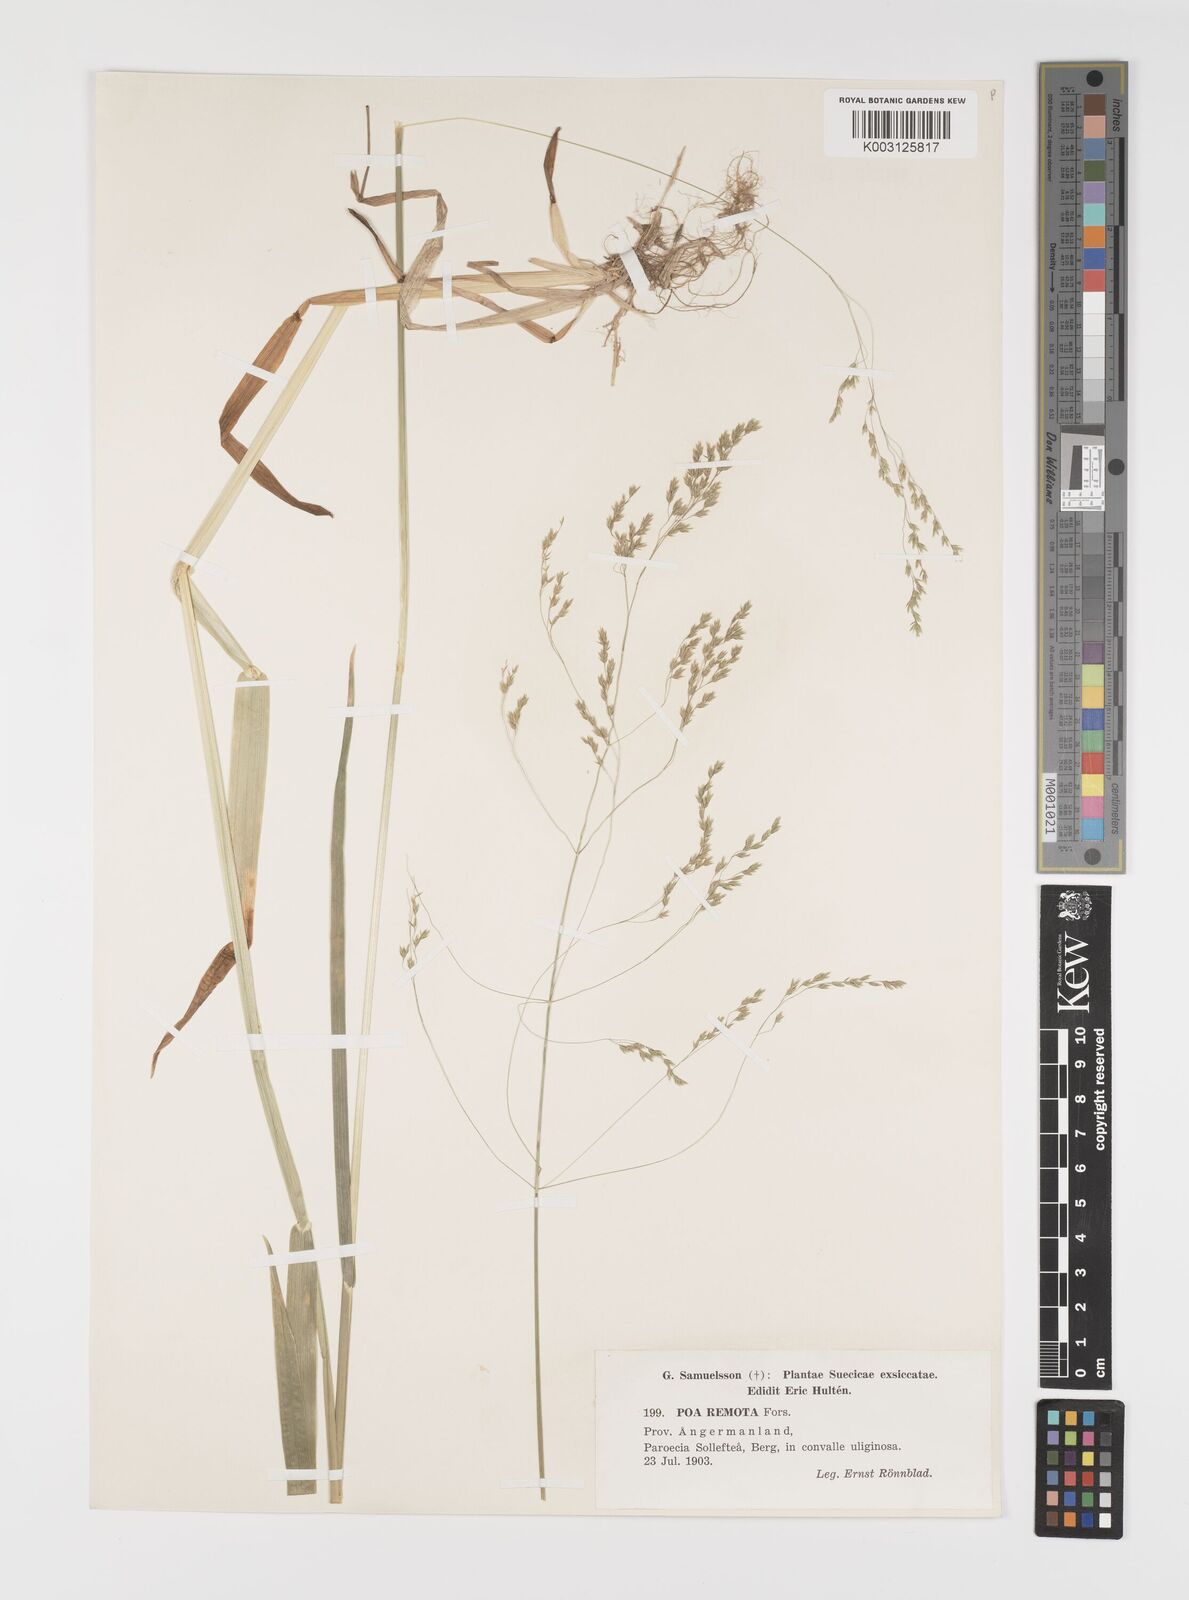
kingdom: Plantae
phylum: Tracheophyta
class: Liliopsida
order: Poales
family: Poaceae
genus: Poa
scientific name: Poa remota
